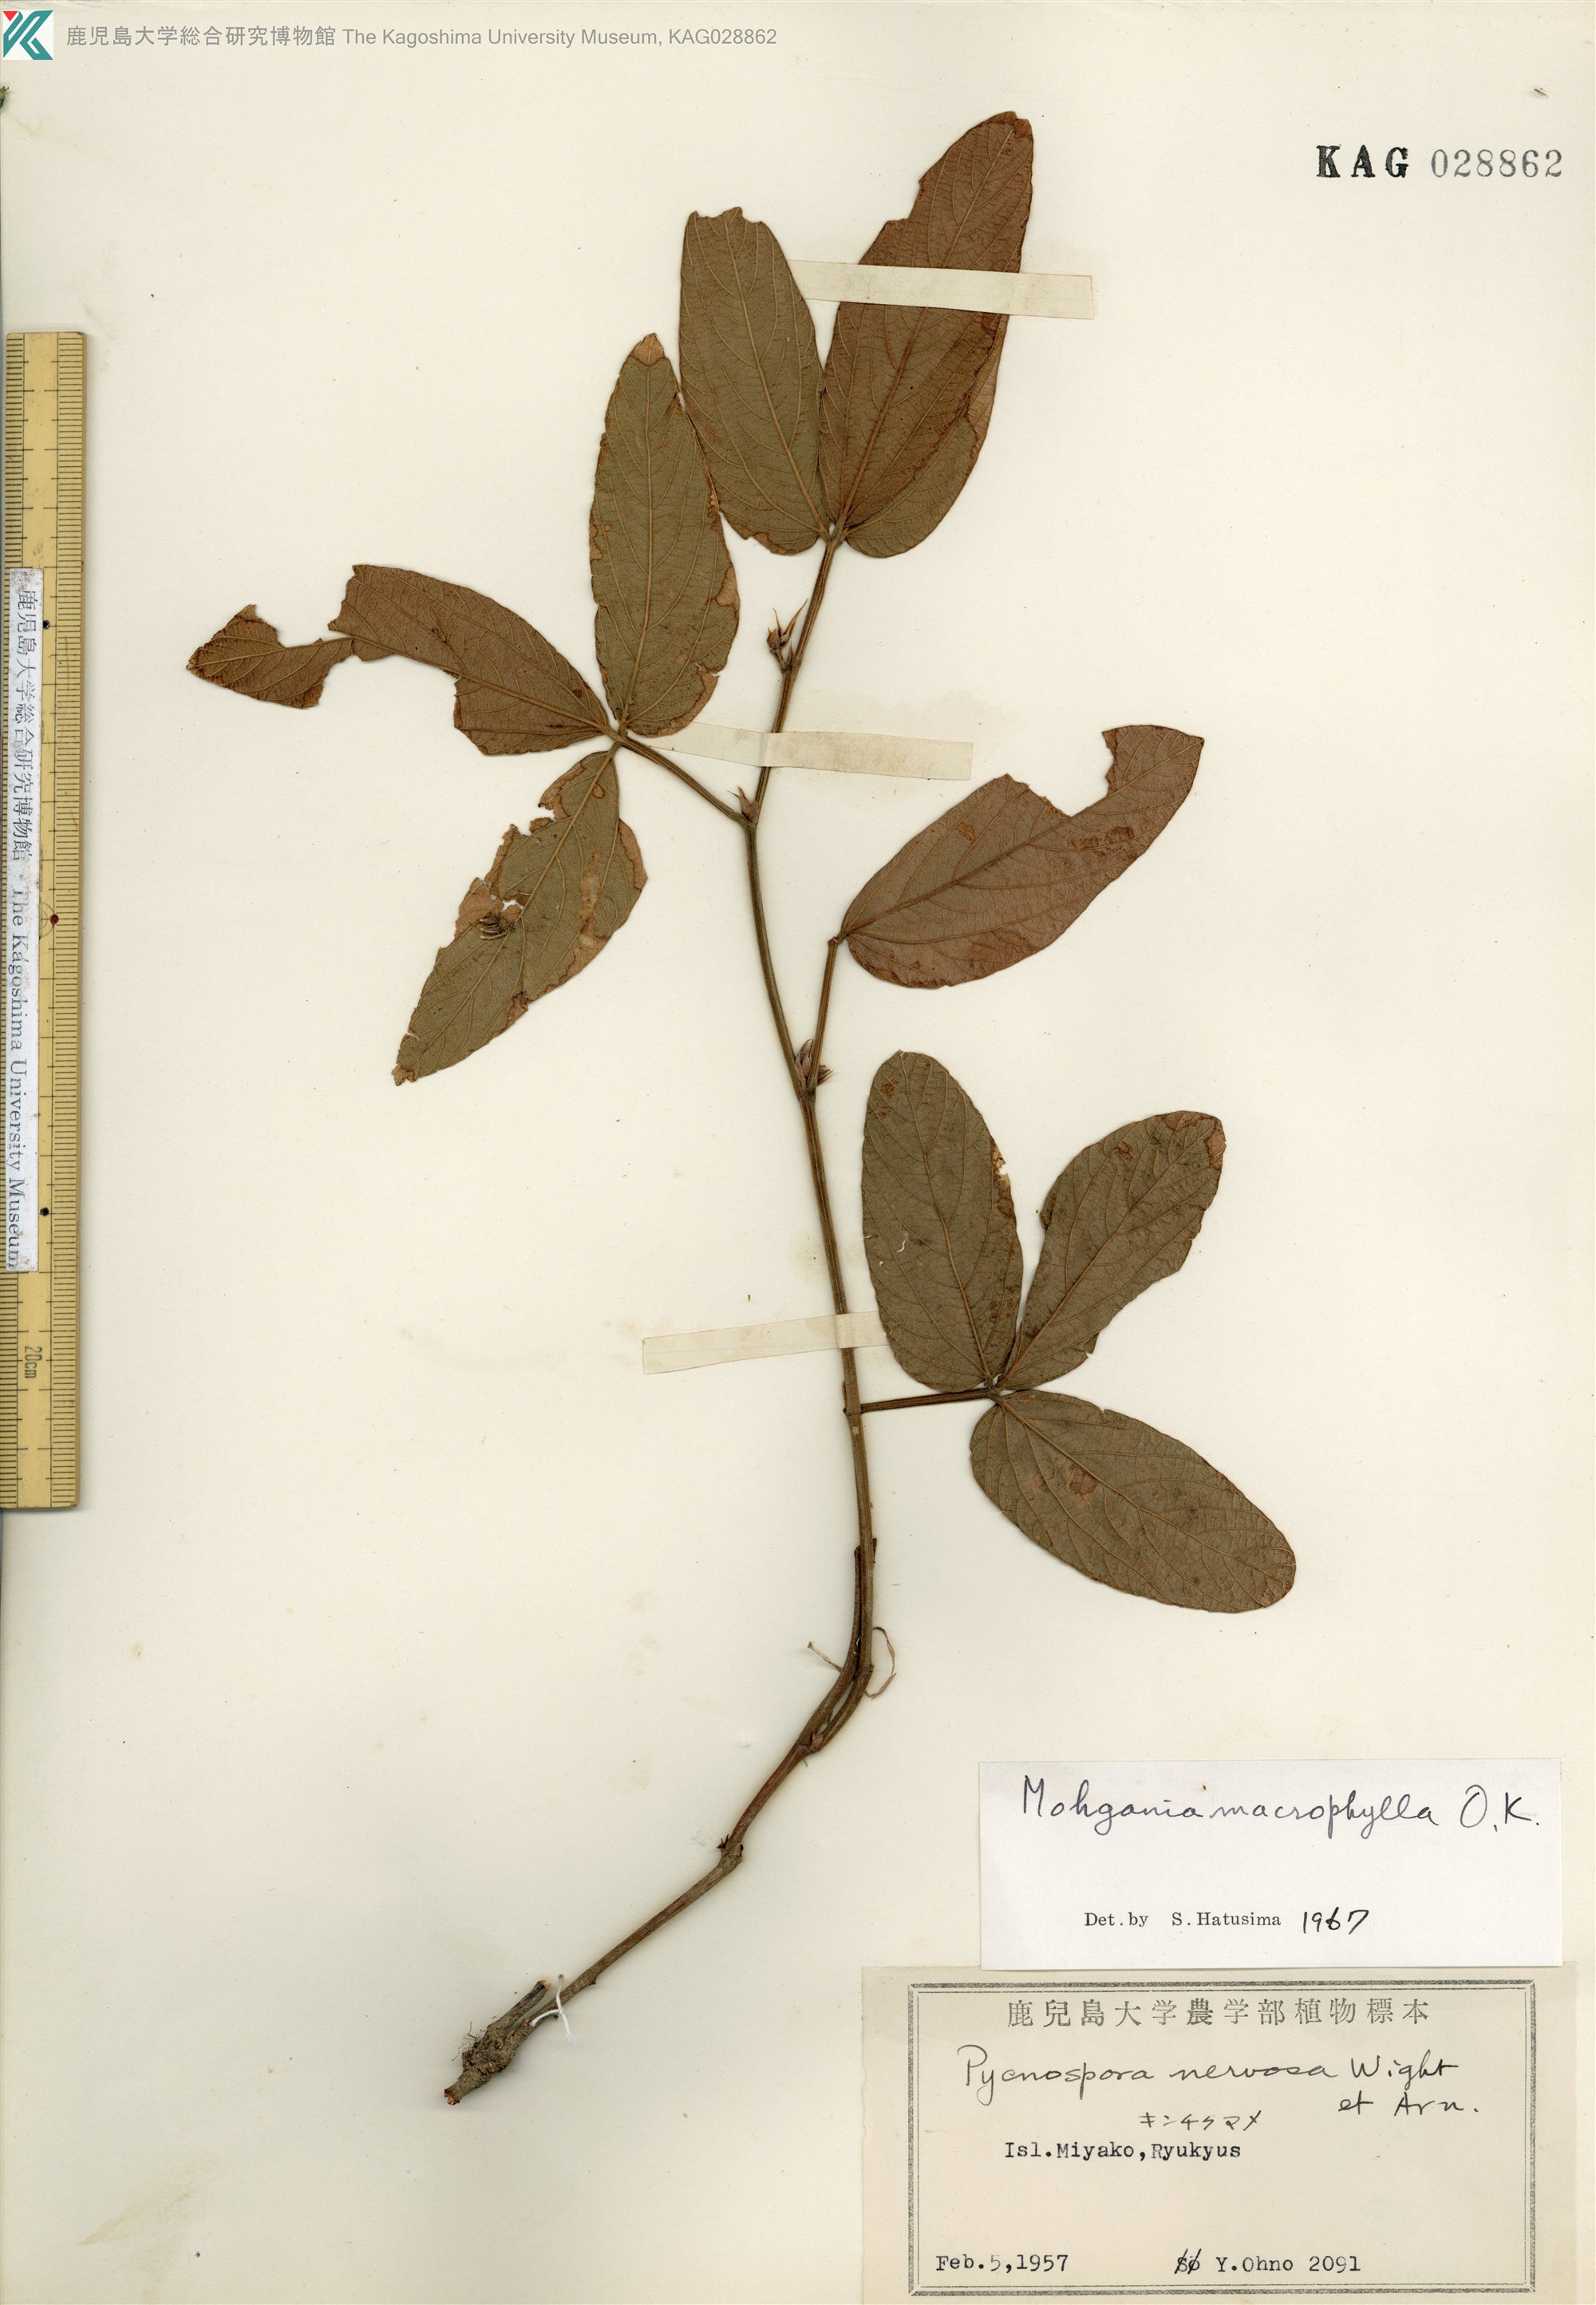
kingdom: Plantae
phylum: Tracheophyta
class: Magnoliopsida
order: Fabales
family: Fabaceae
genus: Flemingia
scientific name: Flemingia prostrata
